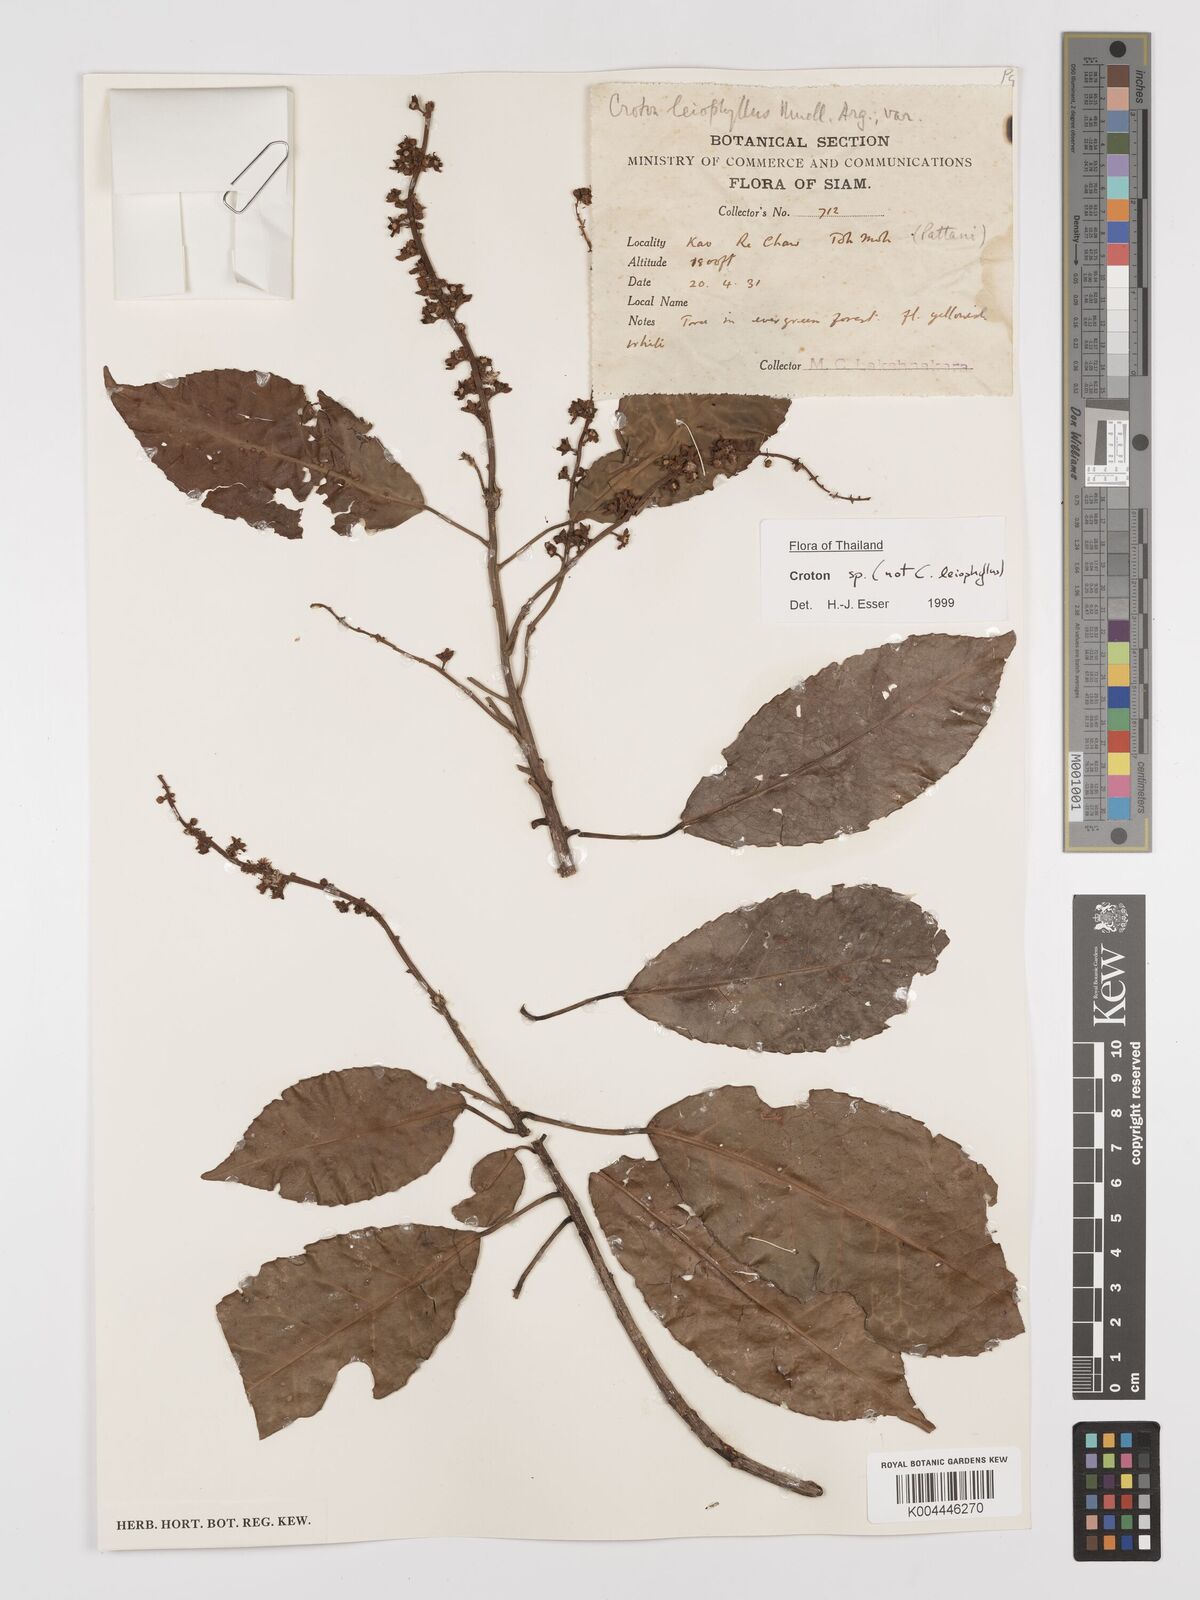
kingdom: Plantae
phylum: Tracheophyta
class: Magnoliopsida
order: Malpighiales
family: Euphorbiaceae
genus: Croton
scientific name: Croton leiophyllus
